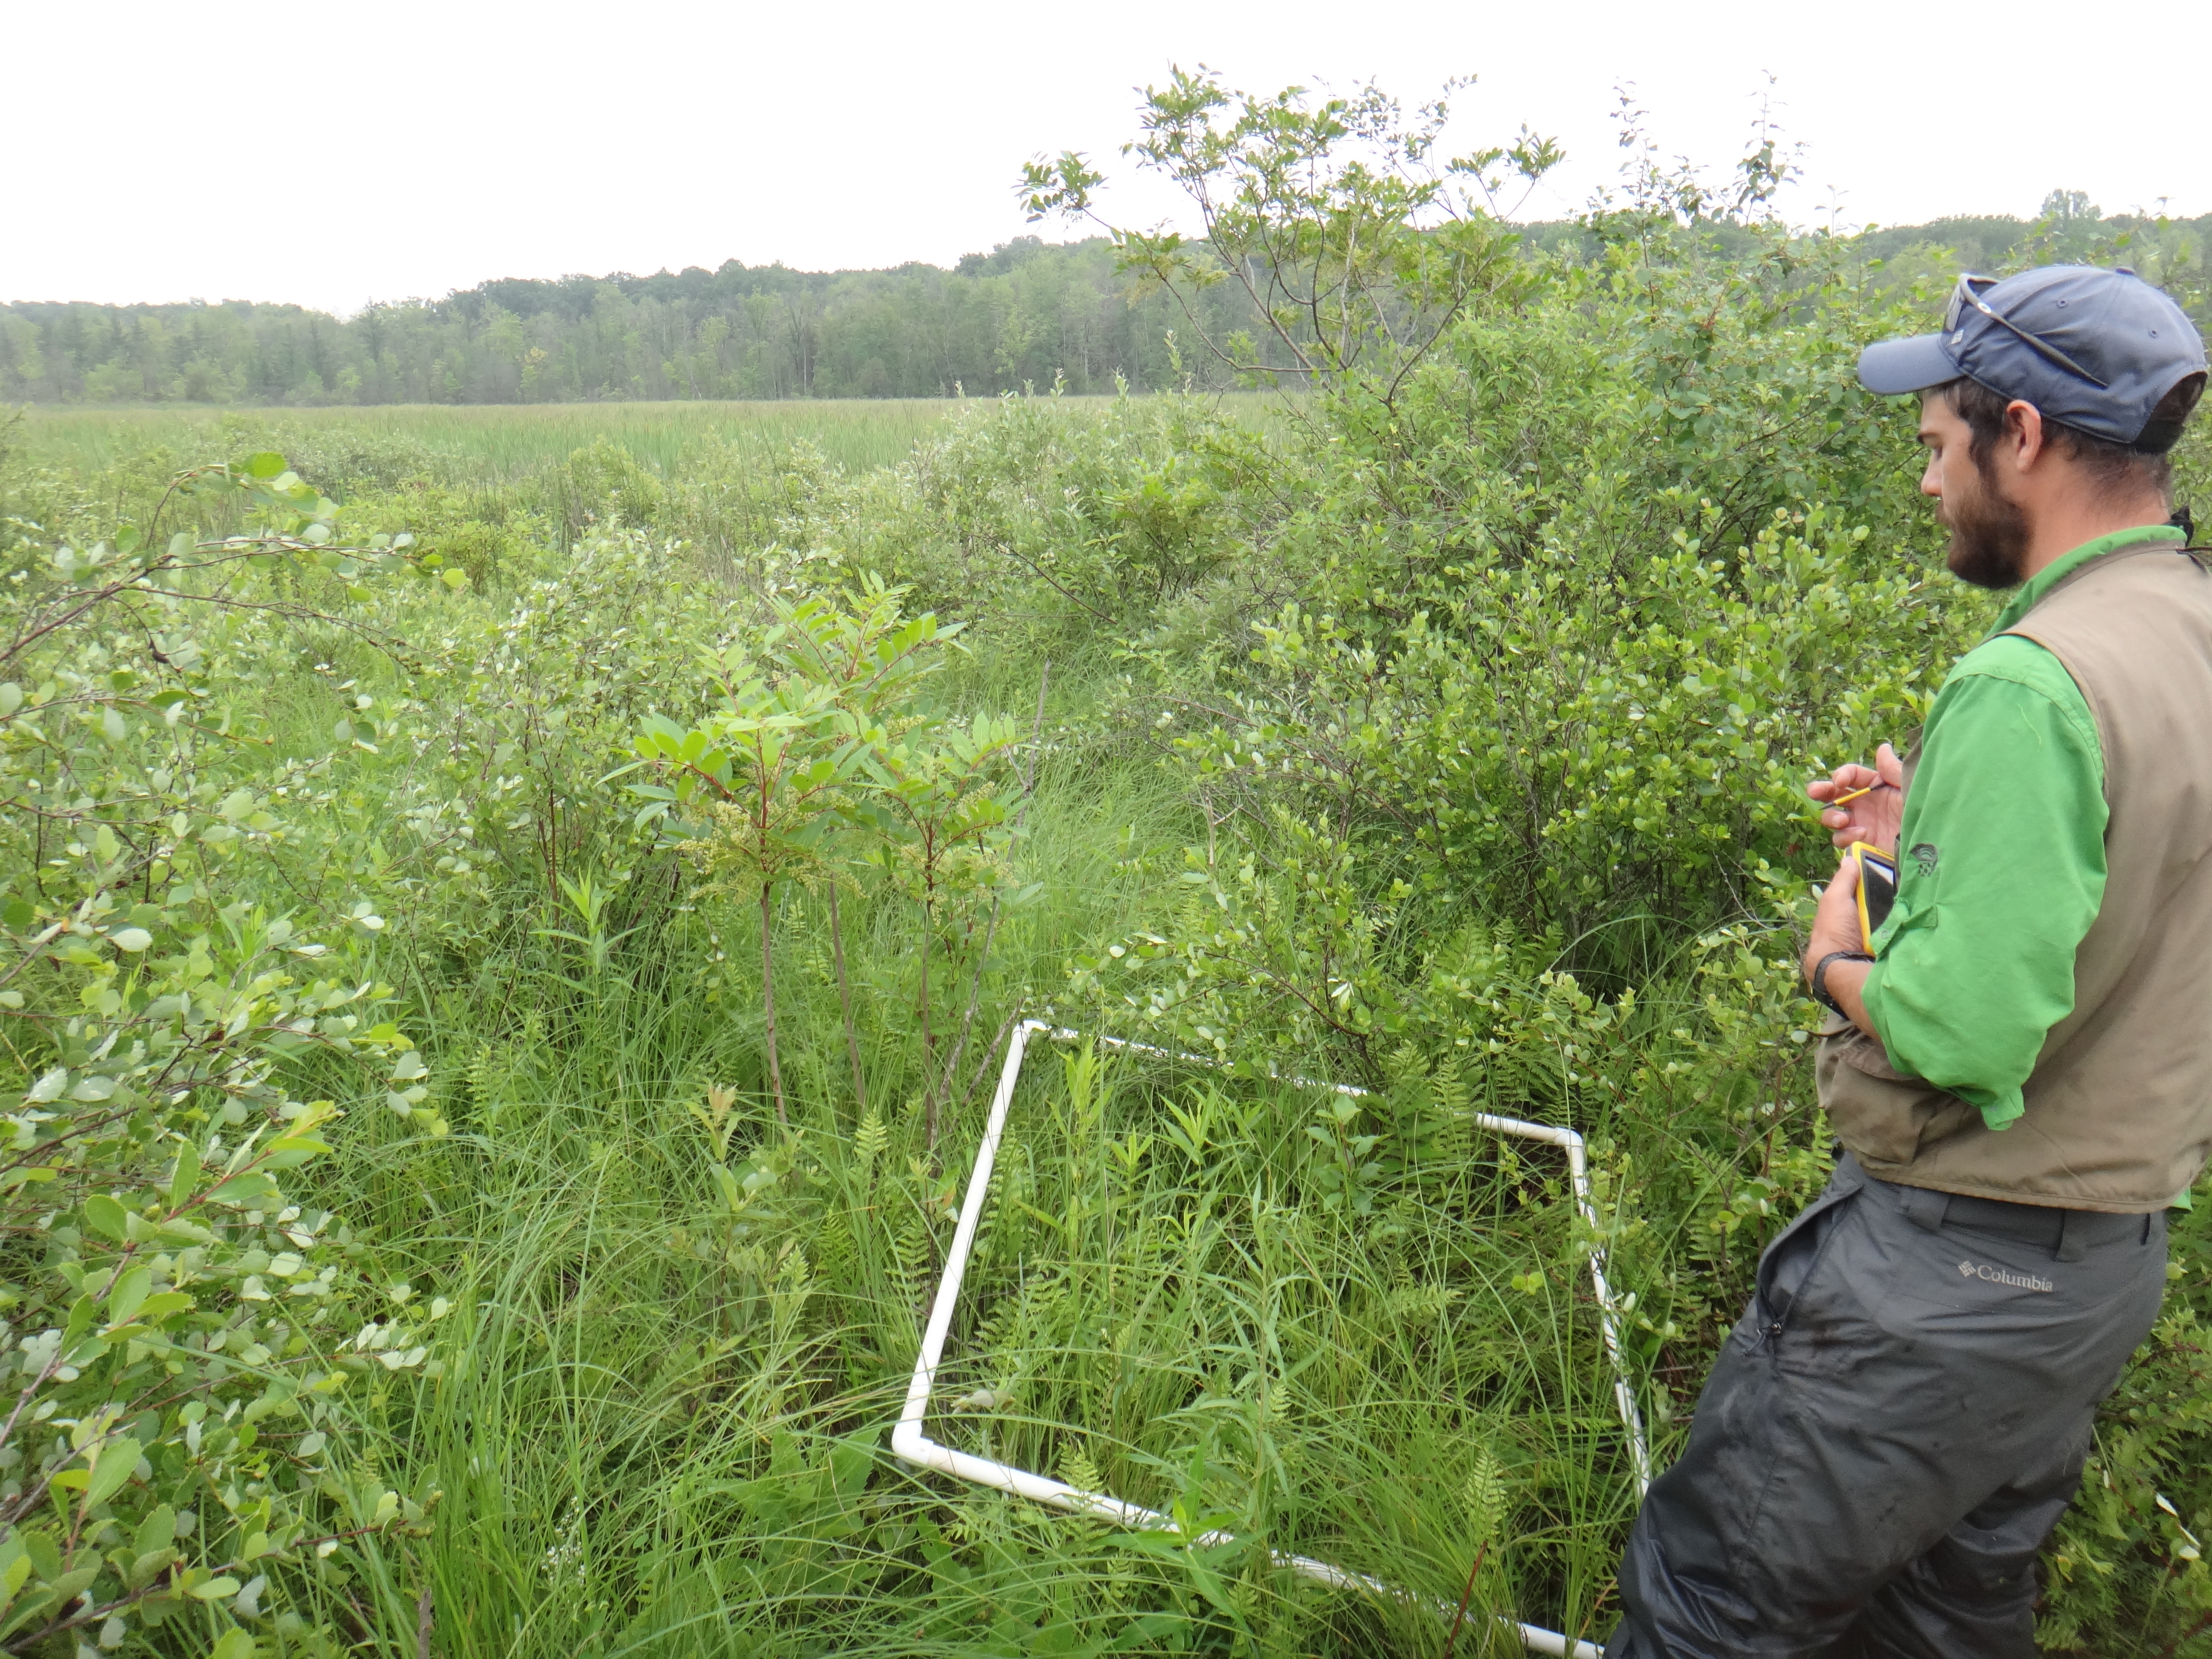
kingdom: Plantae
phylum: Tracheophyta
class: Magnoliopsida
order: Rosales
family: Rhamnaceae
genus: Frangula
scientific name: Frangula alnus
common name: Alder buckthorn
